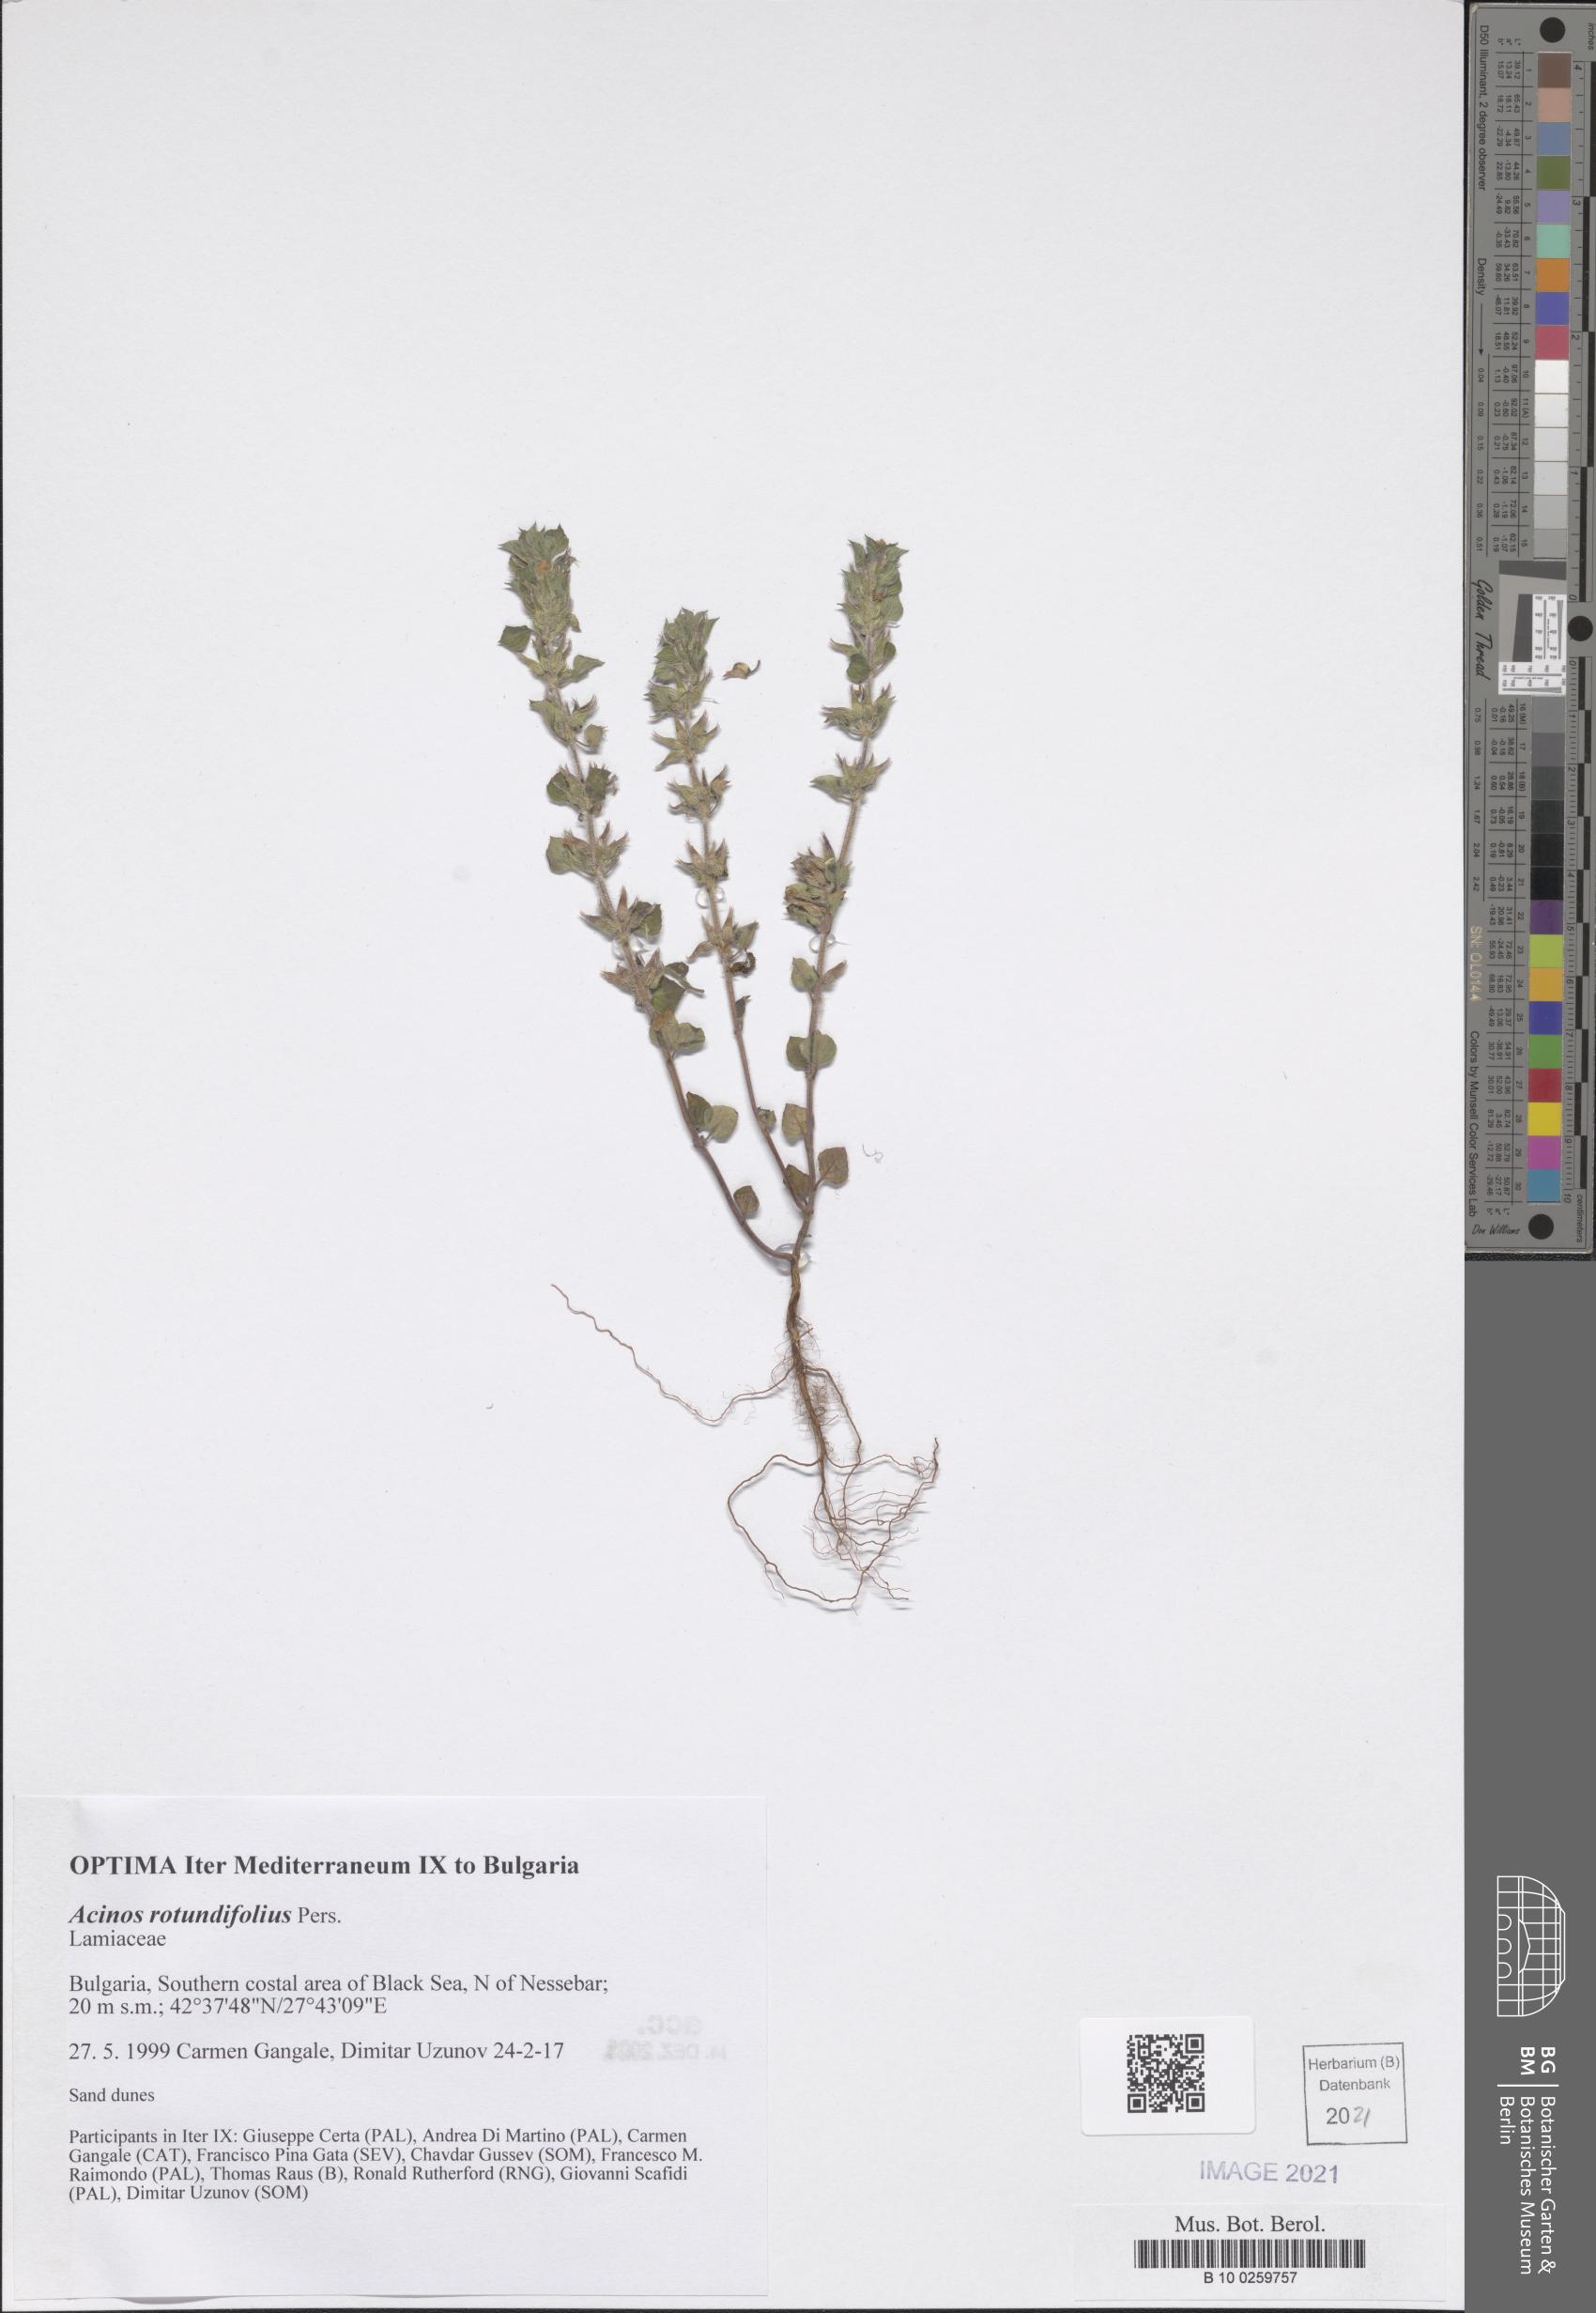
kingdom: Plantae
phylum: Tracheophyta
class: Magnoliopsida
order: Lamiales
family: Lamiaceae
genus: Clinopodium
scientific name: Clinopodium graveolens
